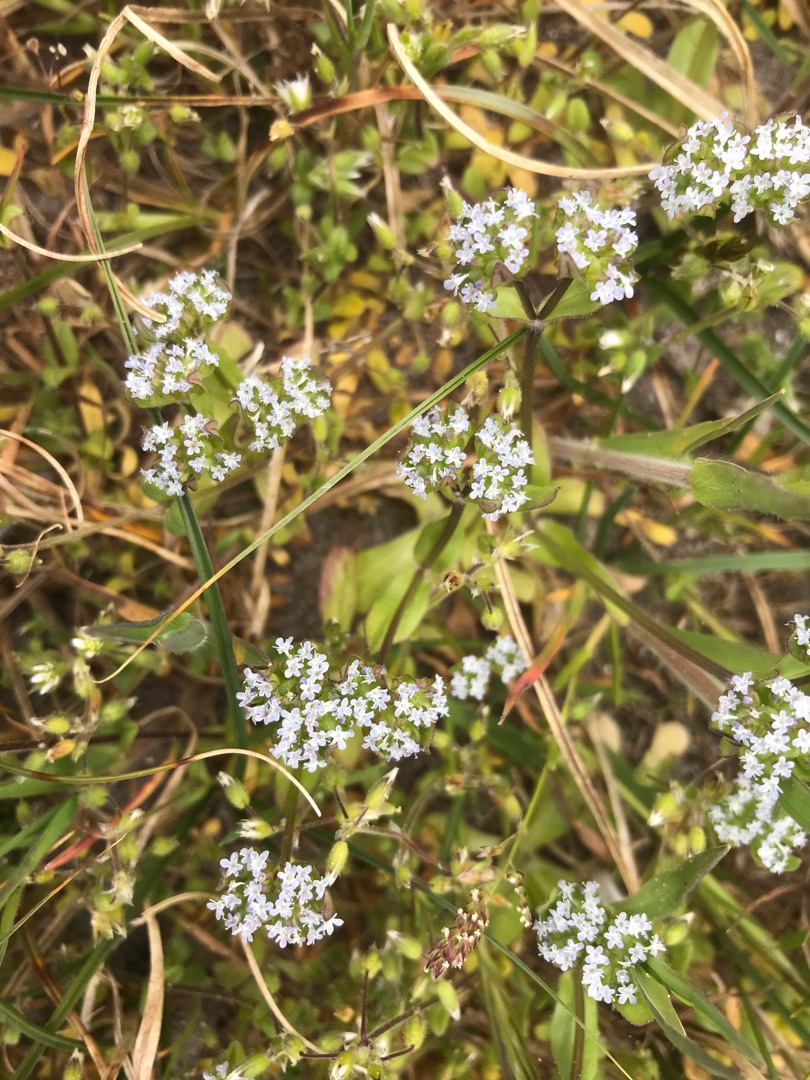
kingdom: Plantae
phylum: Tracheophyta
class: Magnoliopsida
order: Dipsacales
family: Caprifoliaceae
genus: Valerianella
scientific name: Valerianella locusta
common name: Tandfri vårsalat
